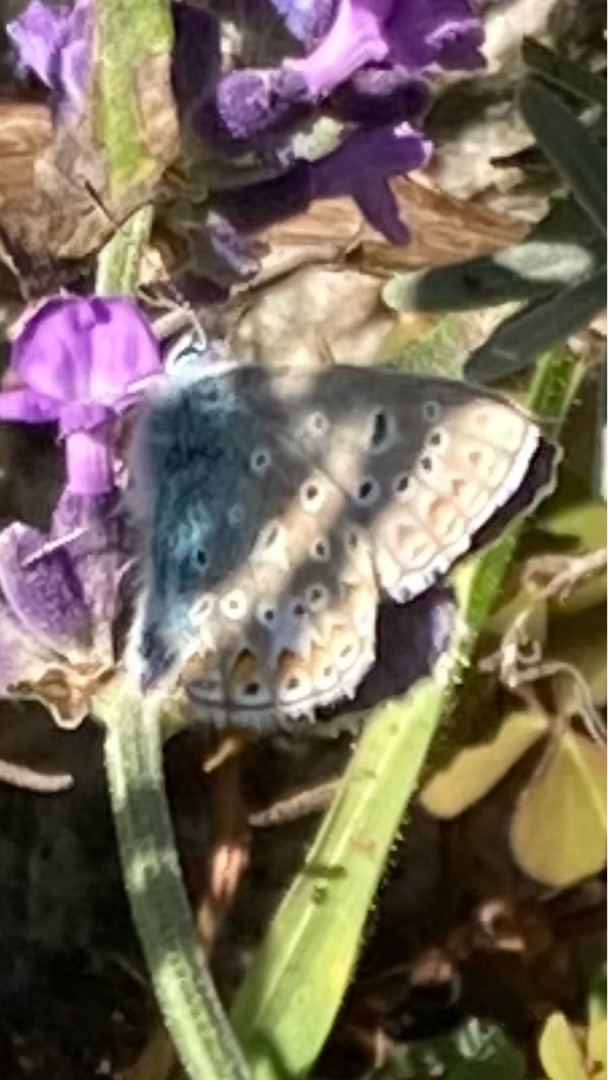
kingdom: Animalia
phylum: Arthropoda
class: Insecta
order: Lepidoptera
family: Lycaenidae
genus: Polyommatus
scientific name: Polyommatus icarus
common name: Almindelig blåfugl
